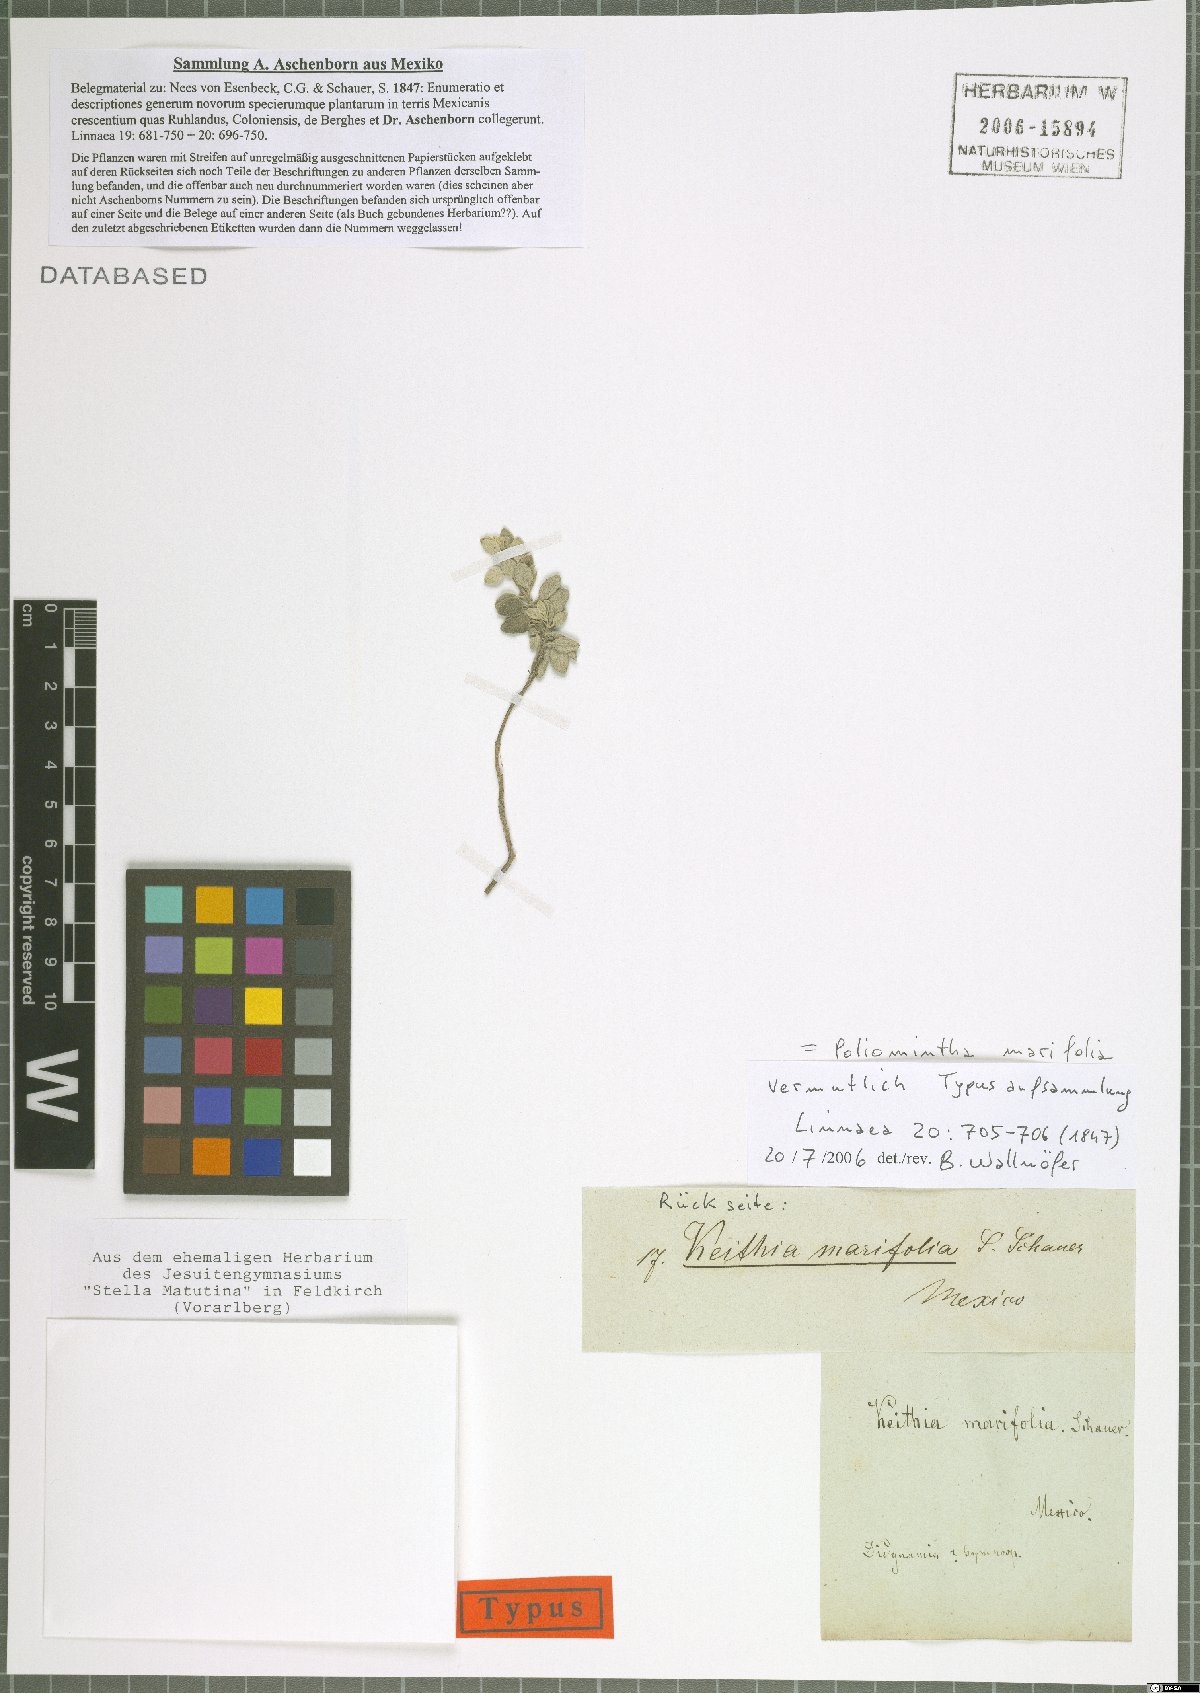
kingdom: Plantae
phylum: Tracheophyta
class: Magnoliopsida
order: Lamiales
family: Lamiaceae
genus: Poliomintha
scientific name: Poliomintha marifolia
